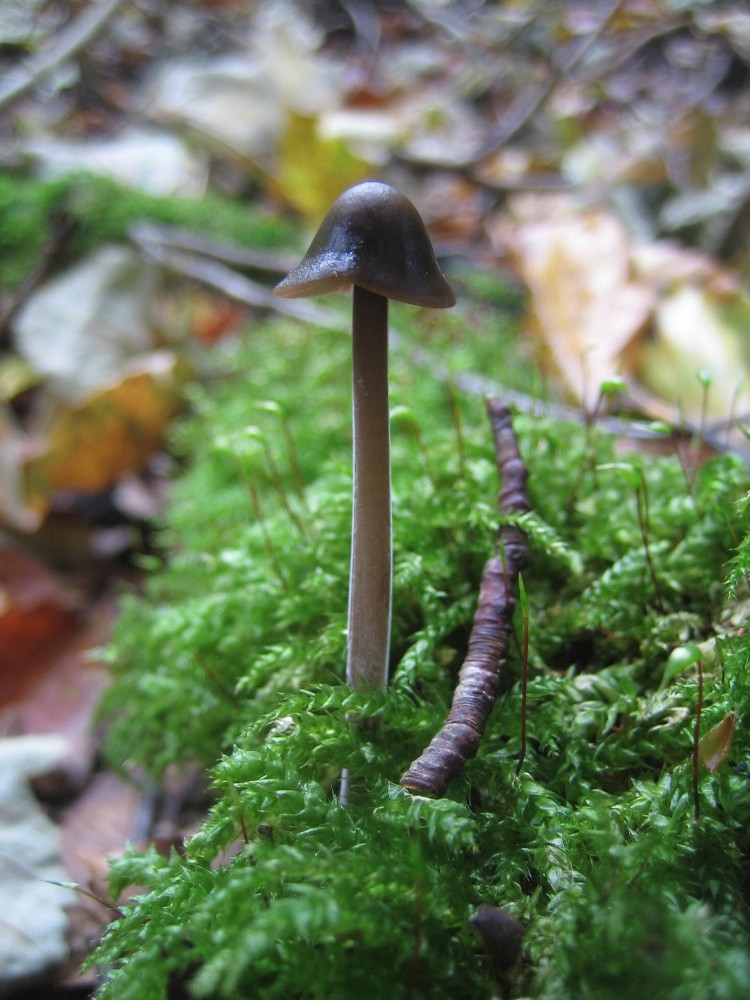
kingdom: Fungi
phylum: Basidiomycota
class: Agaricomycetes
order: Agaricales
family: Omphalotaceae
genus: Mycetinis
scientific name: Mycetinis alliaceus
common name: stor løghat
